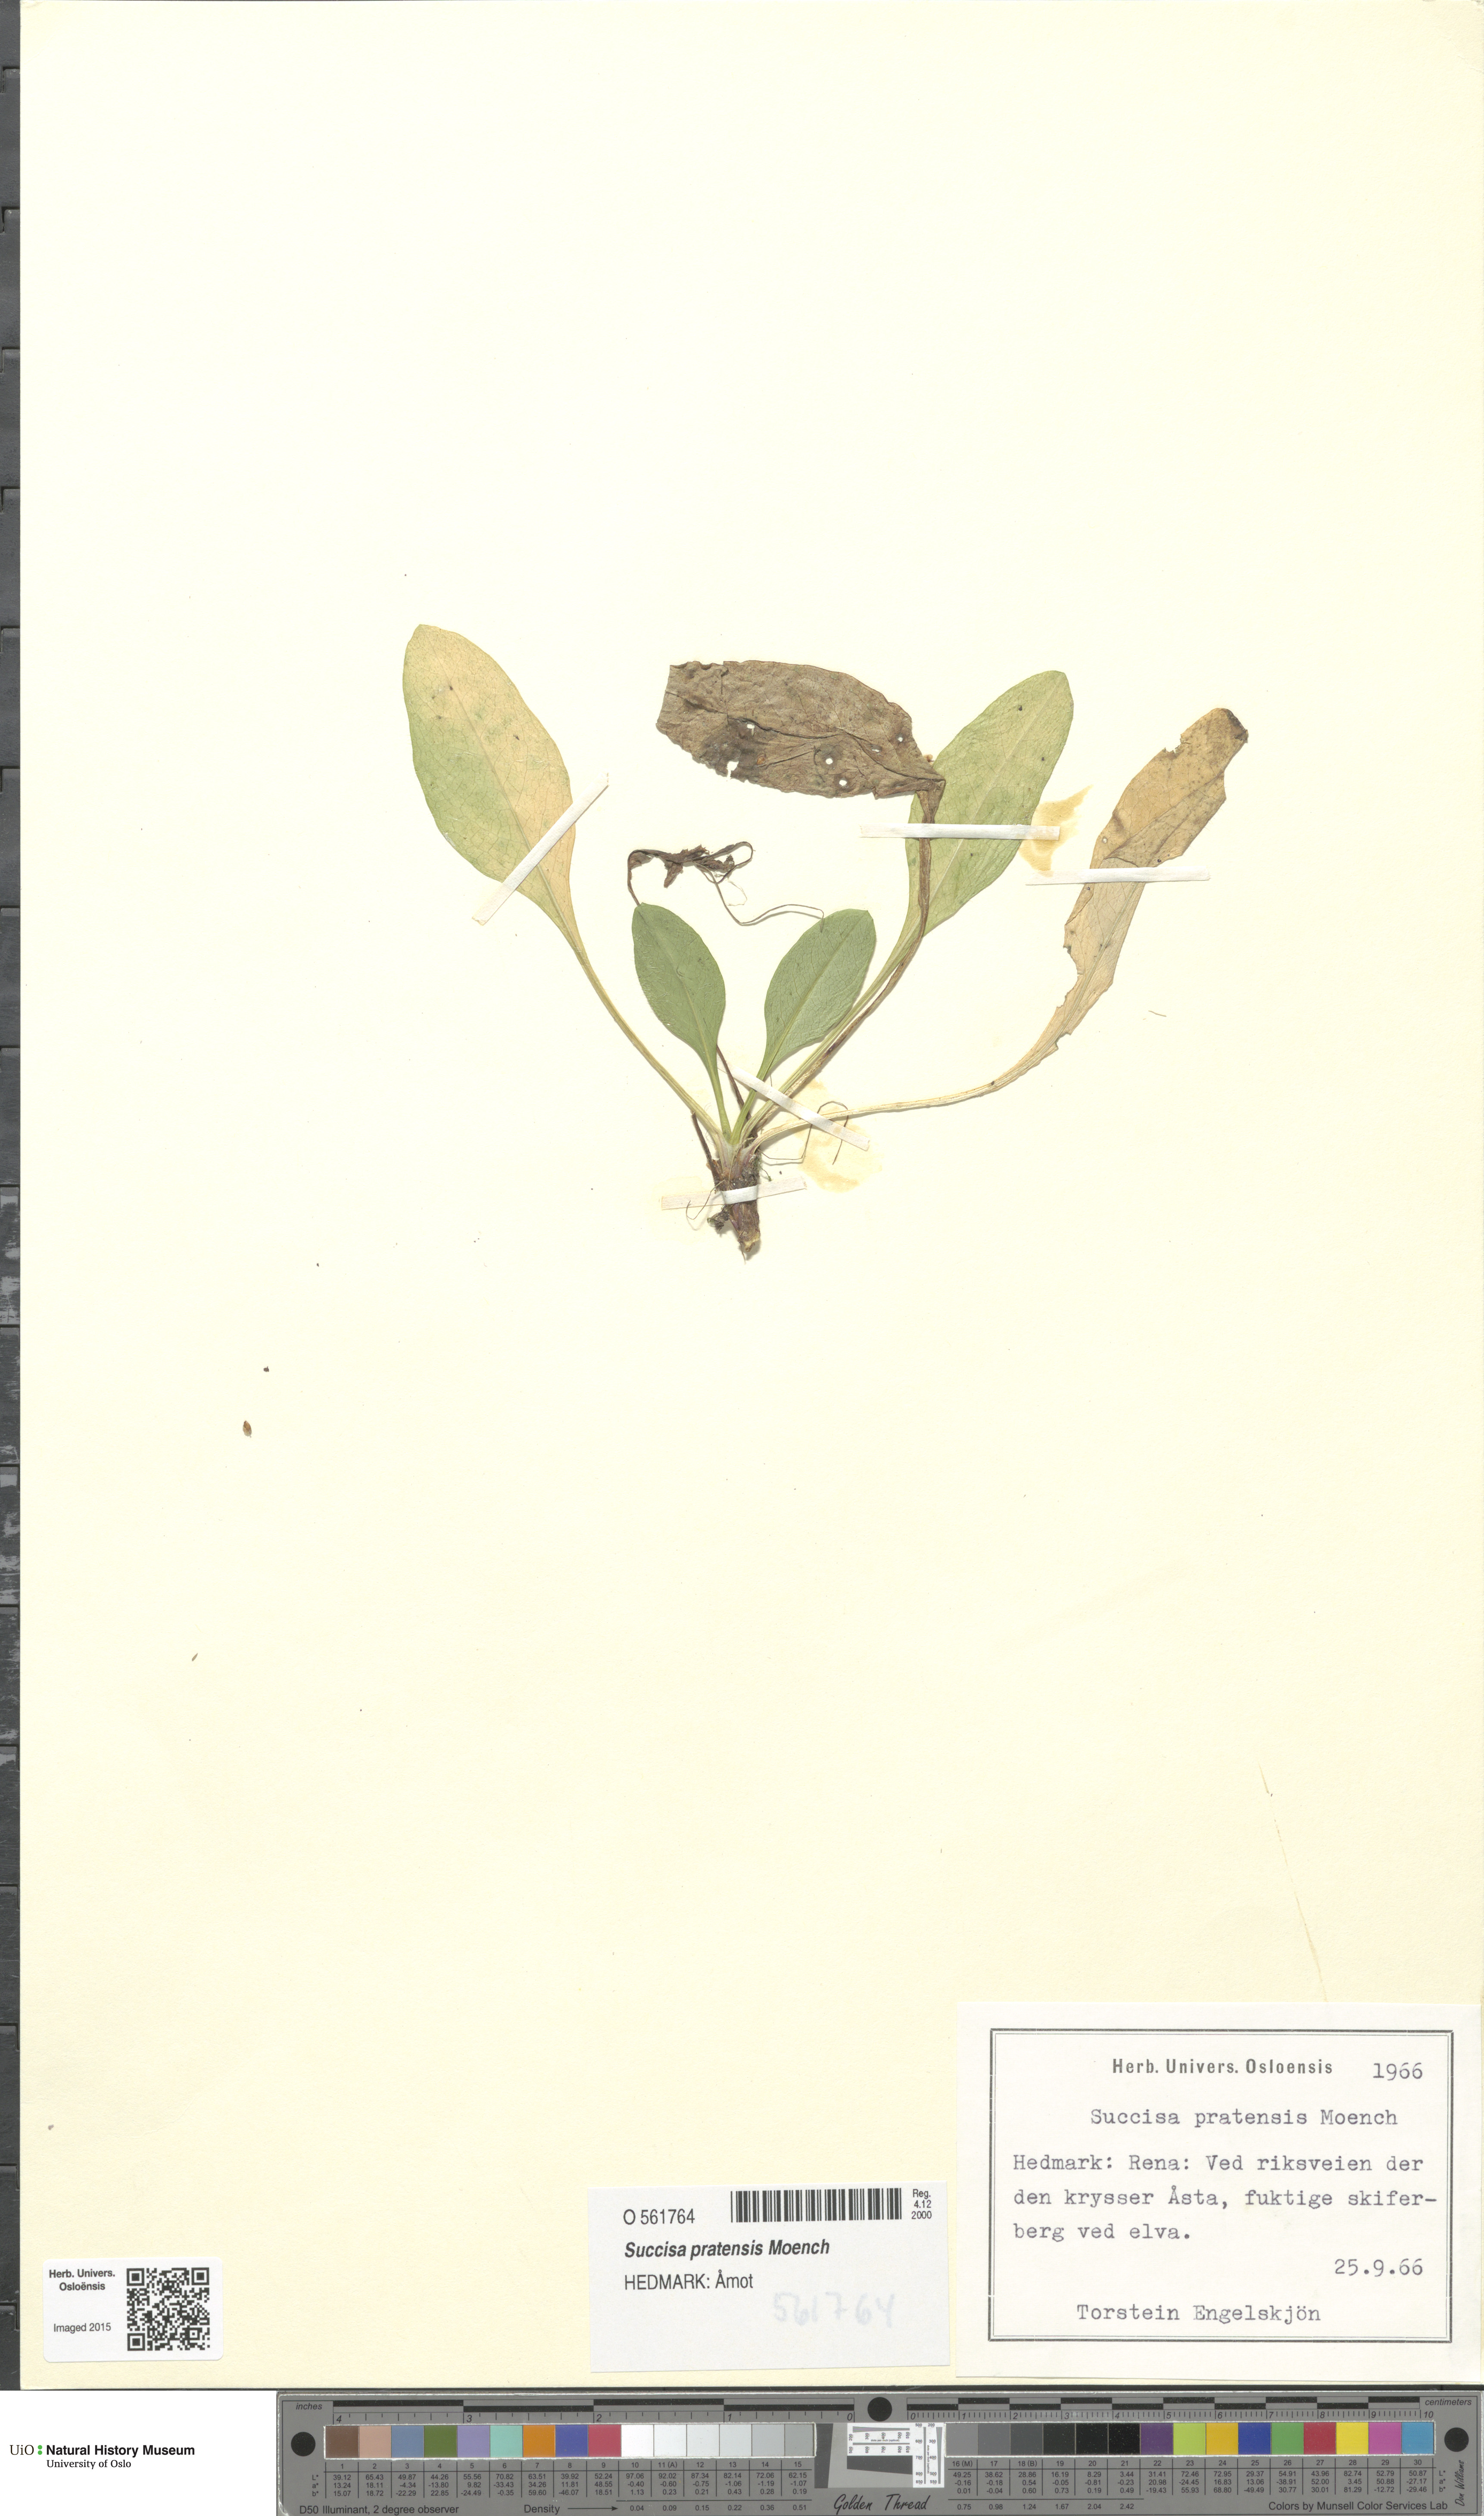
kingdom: Plantae
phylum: Tracheophyta
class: Magnoliopsida
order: Dipsacales
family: Caprifoliaceae
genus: Succisa
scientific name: Succisa pratensis
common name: Devil's-bit
